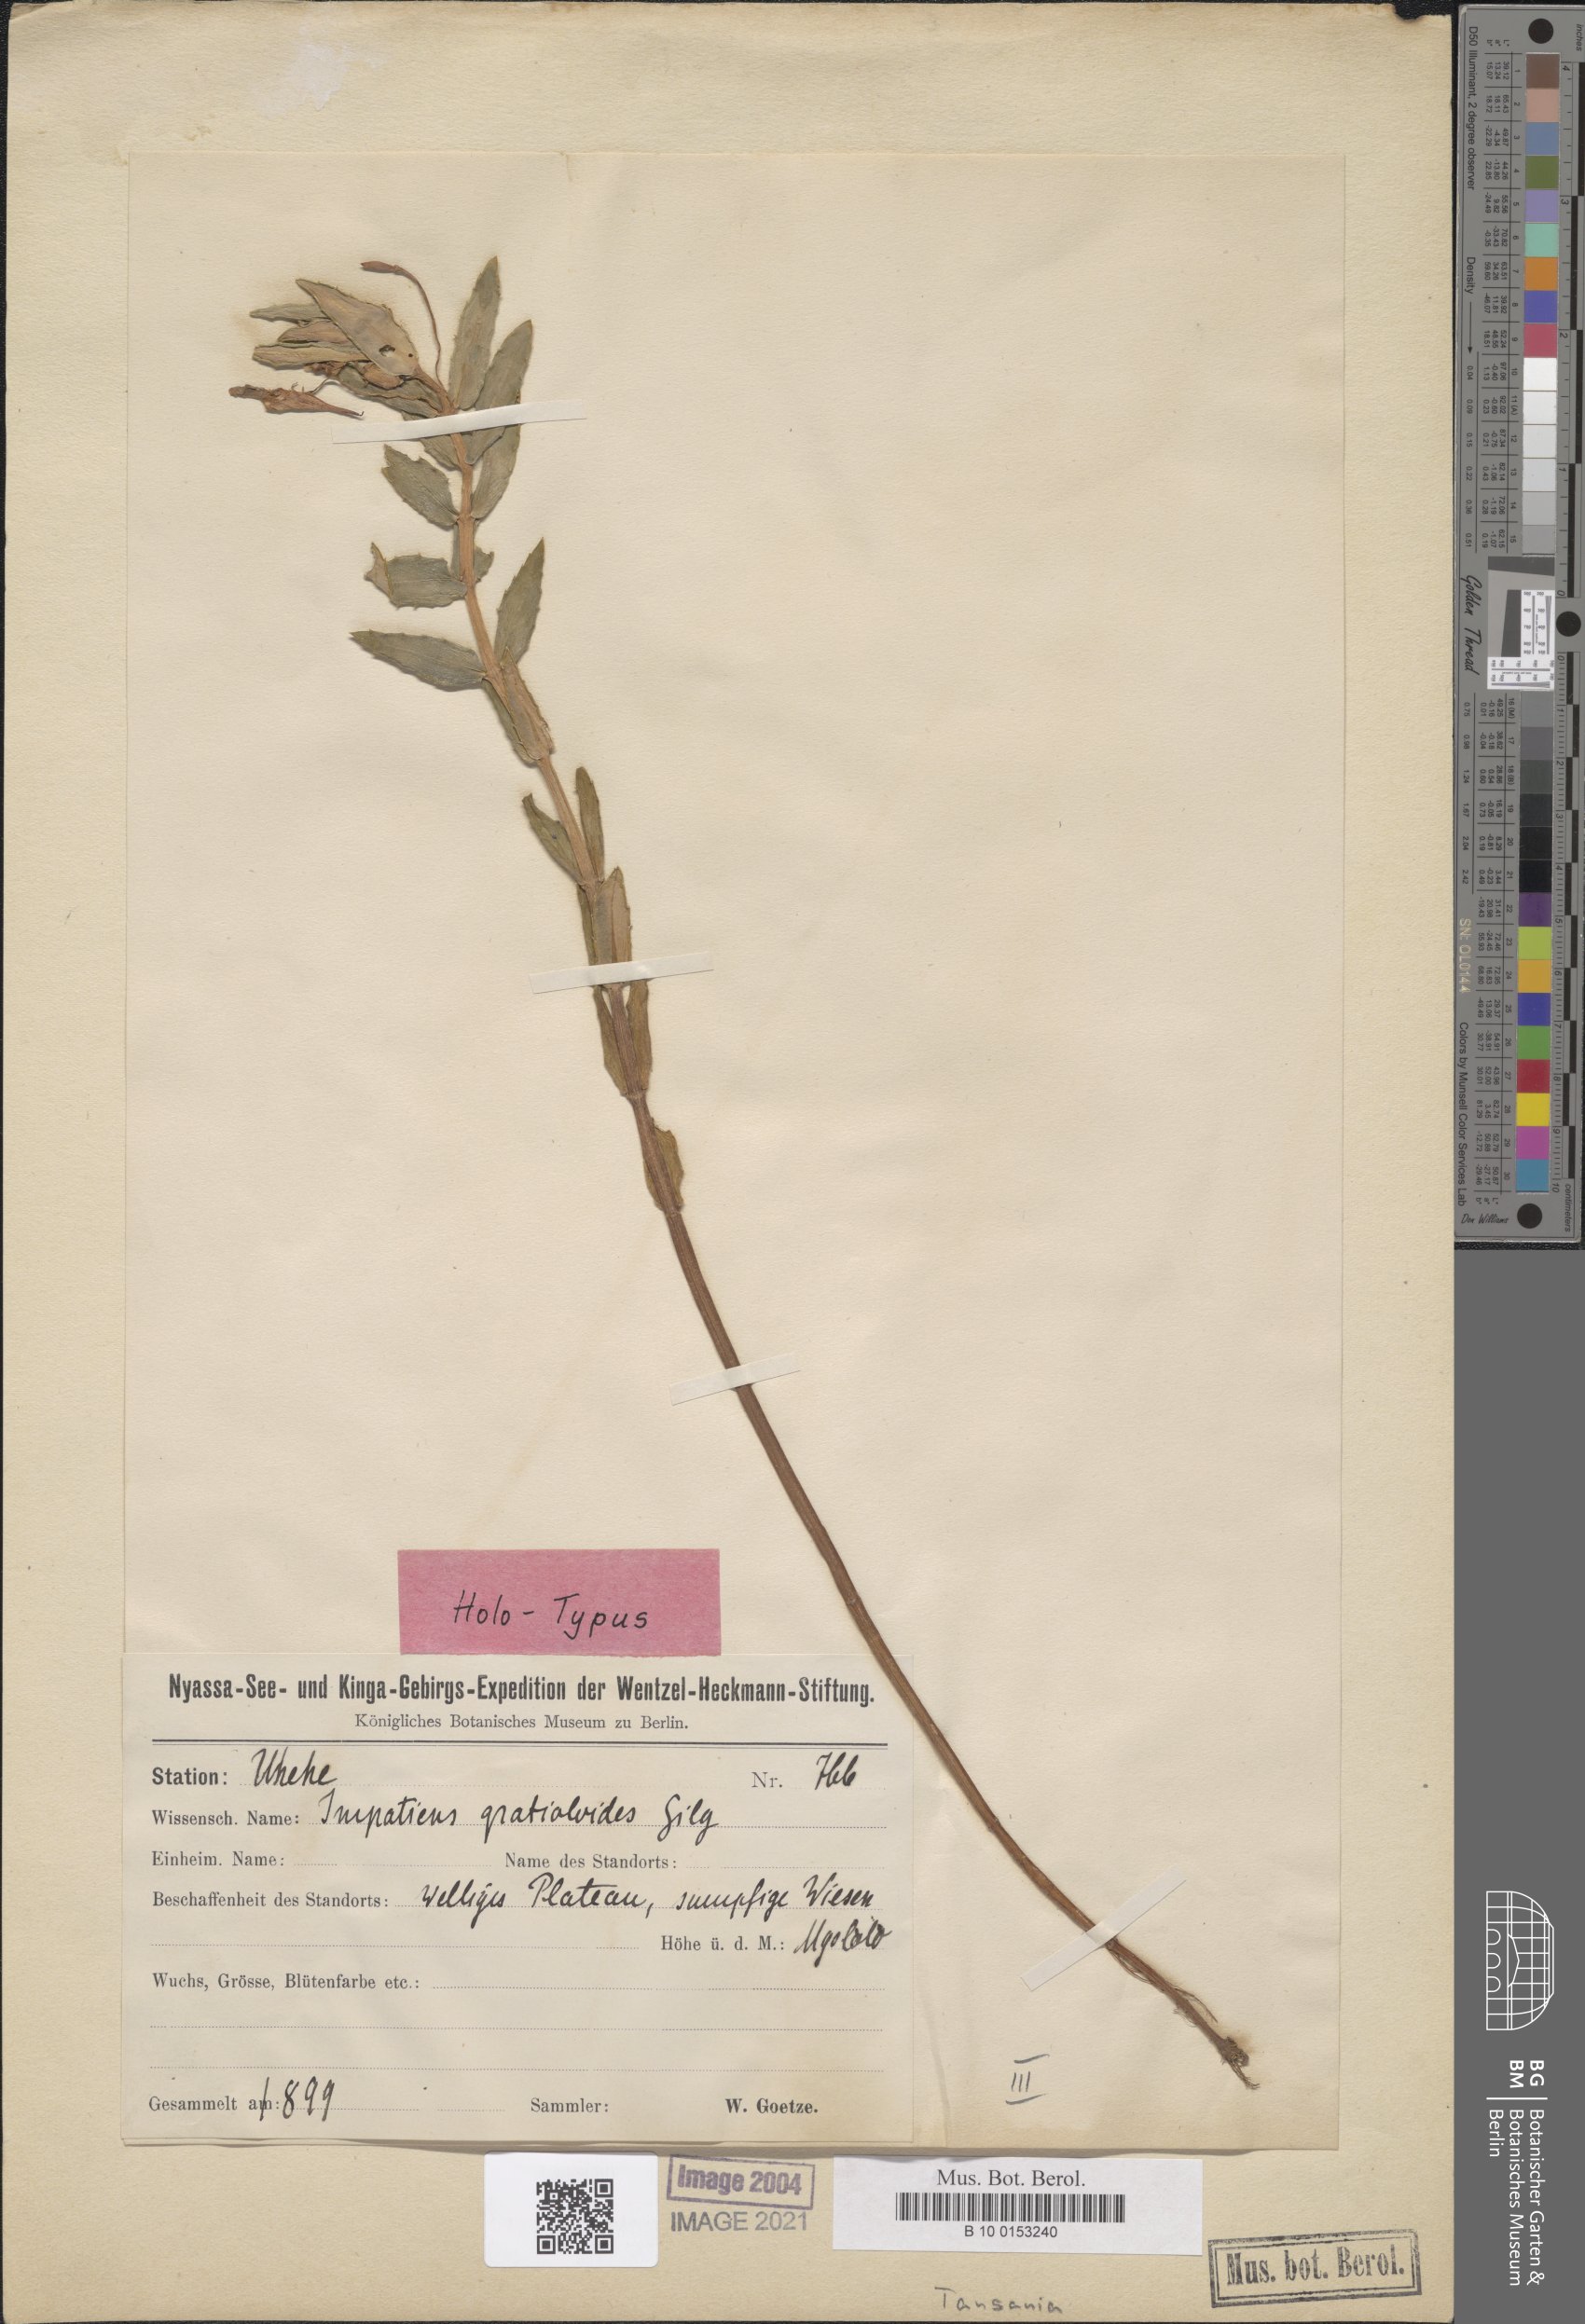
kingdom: Plantae
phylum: Tracheophyta
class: Magnoliopsida
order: Ericales
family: Balsaminaceae
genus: Impatiens
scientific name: Impatiens assurgens
